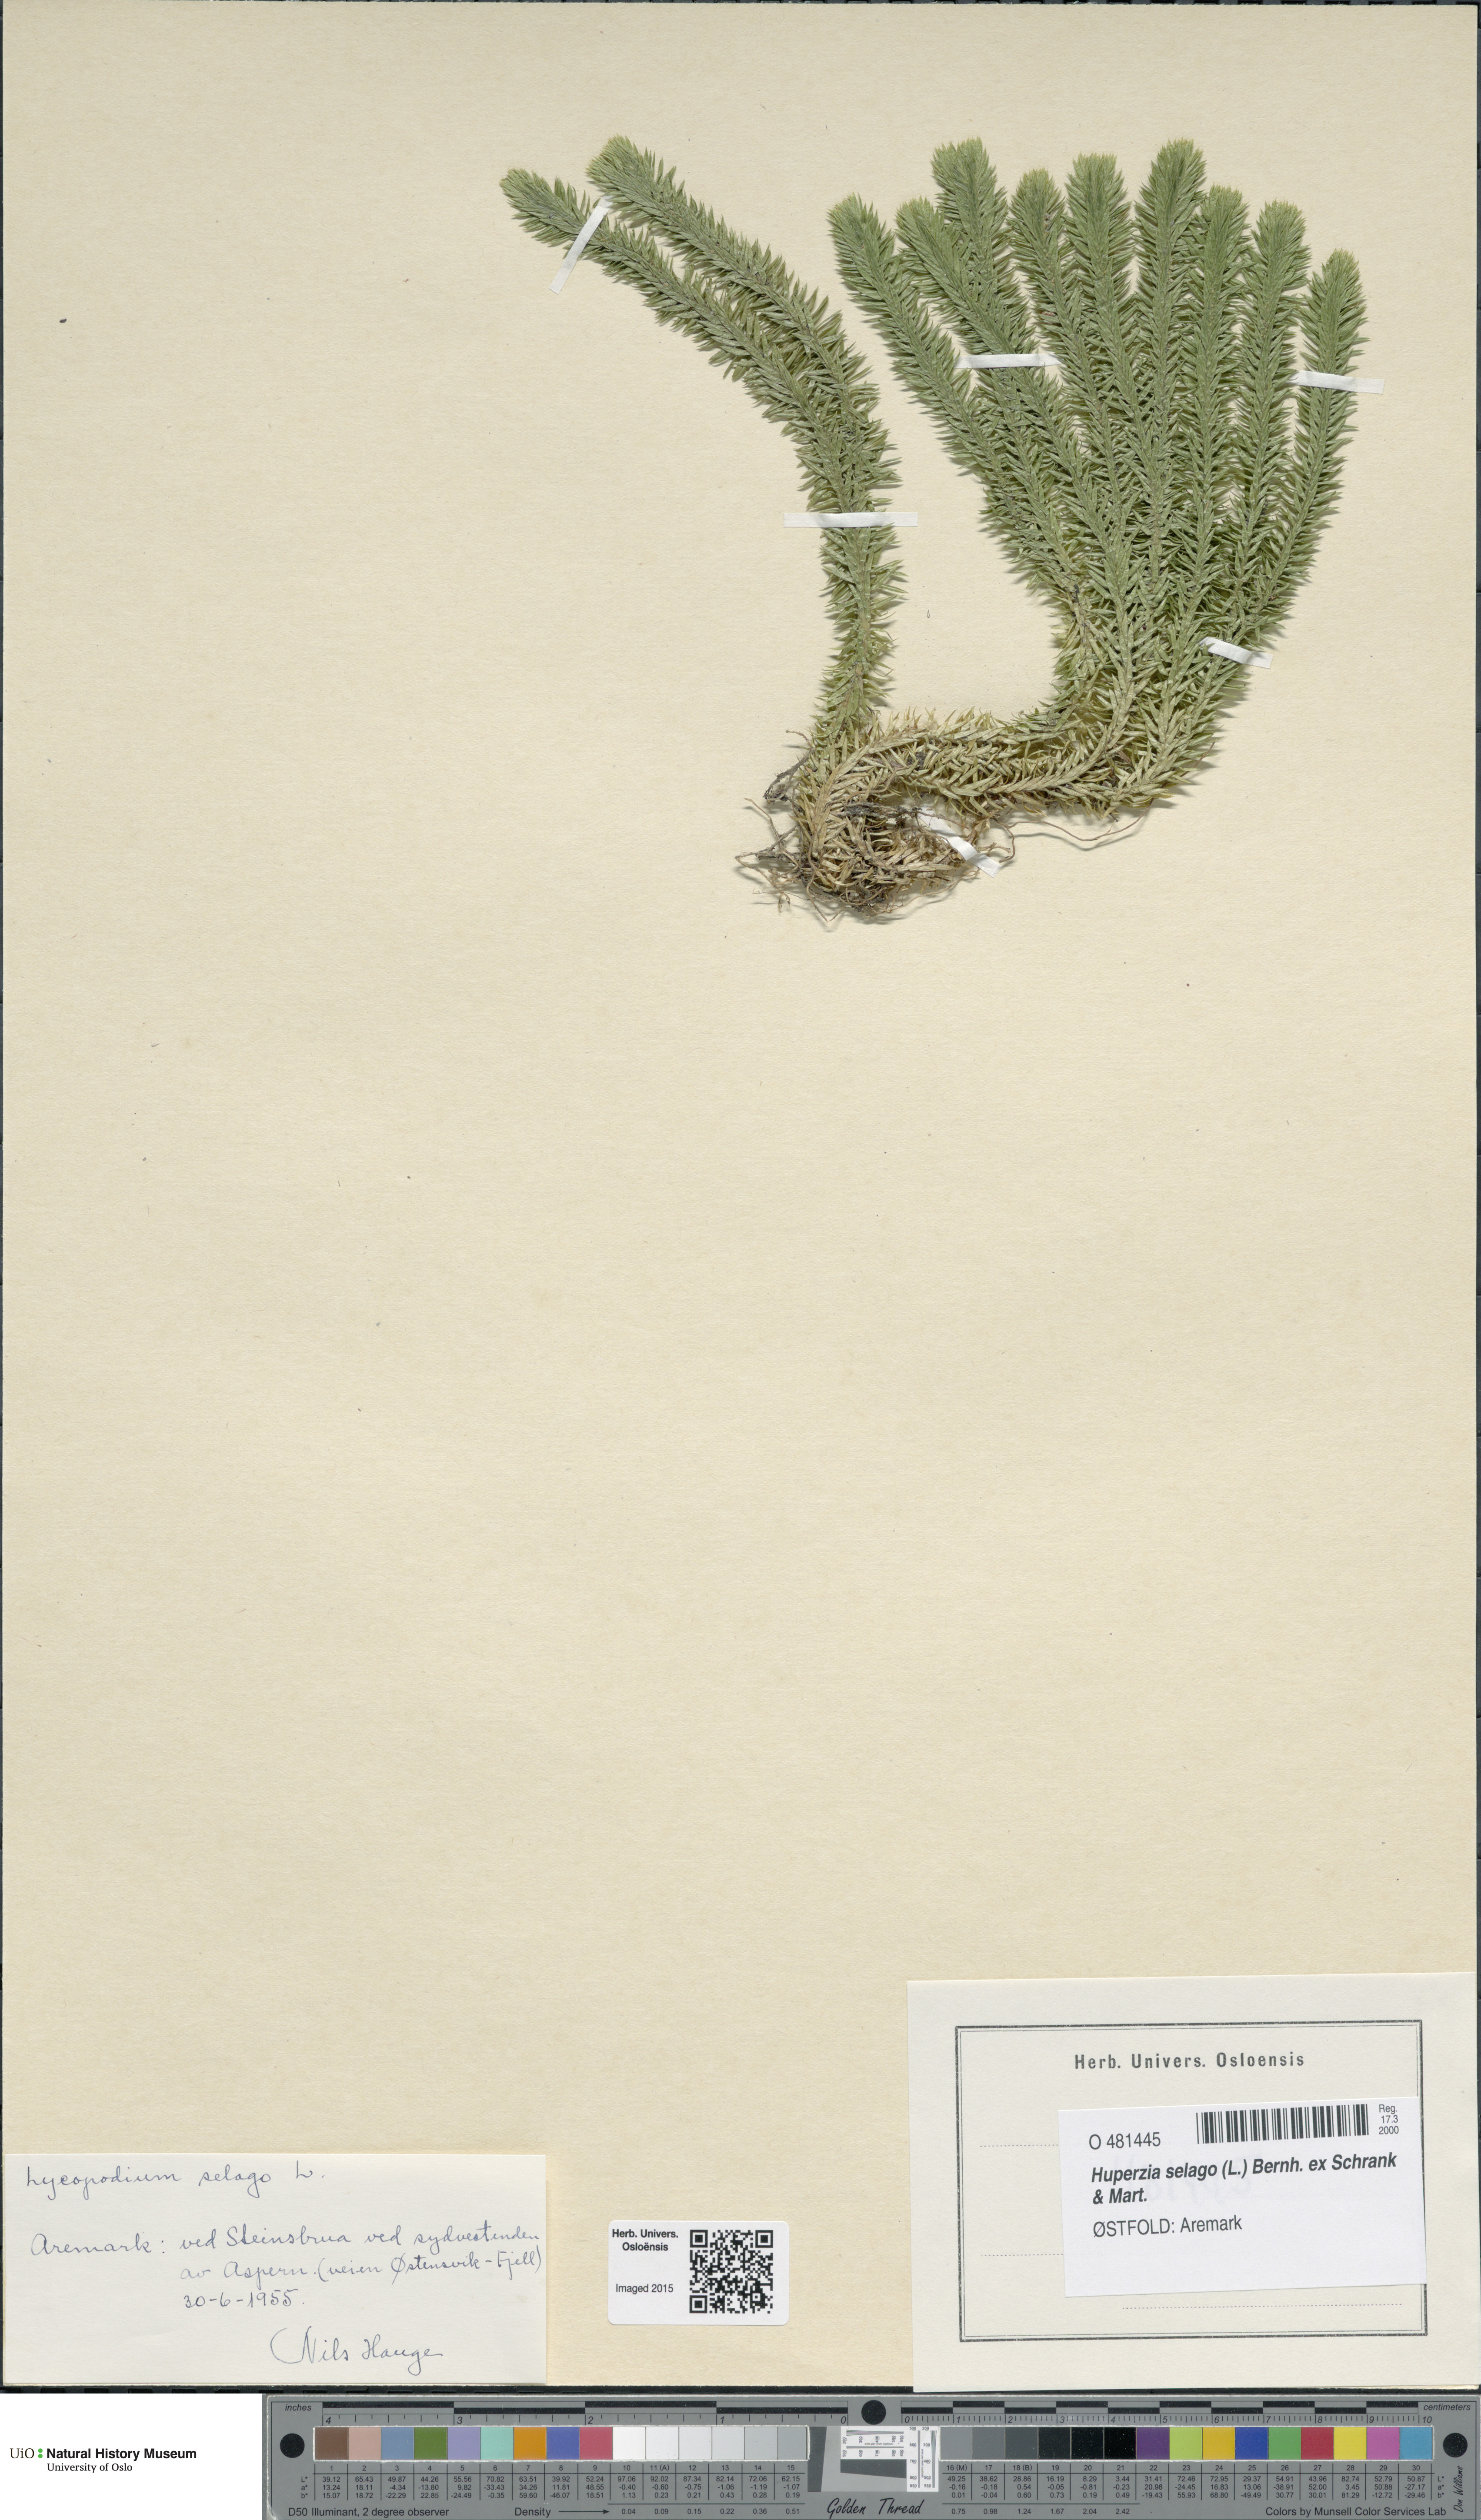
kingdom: Plantae
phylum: Tracheophyta
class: Lycopodiopsida
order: Lycopodiales
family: Lycopodiaceae
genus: Huperzia
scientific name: Huperzia selago
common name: Northern firmoss
